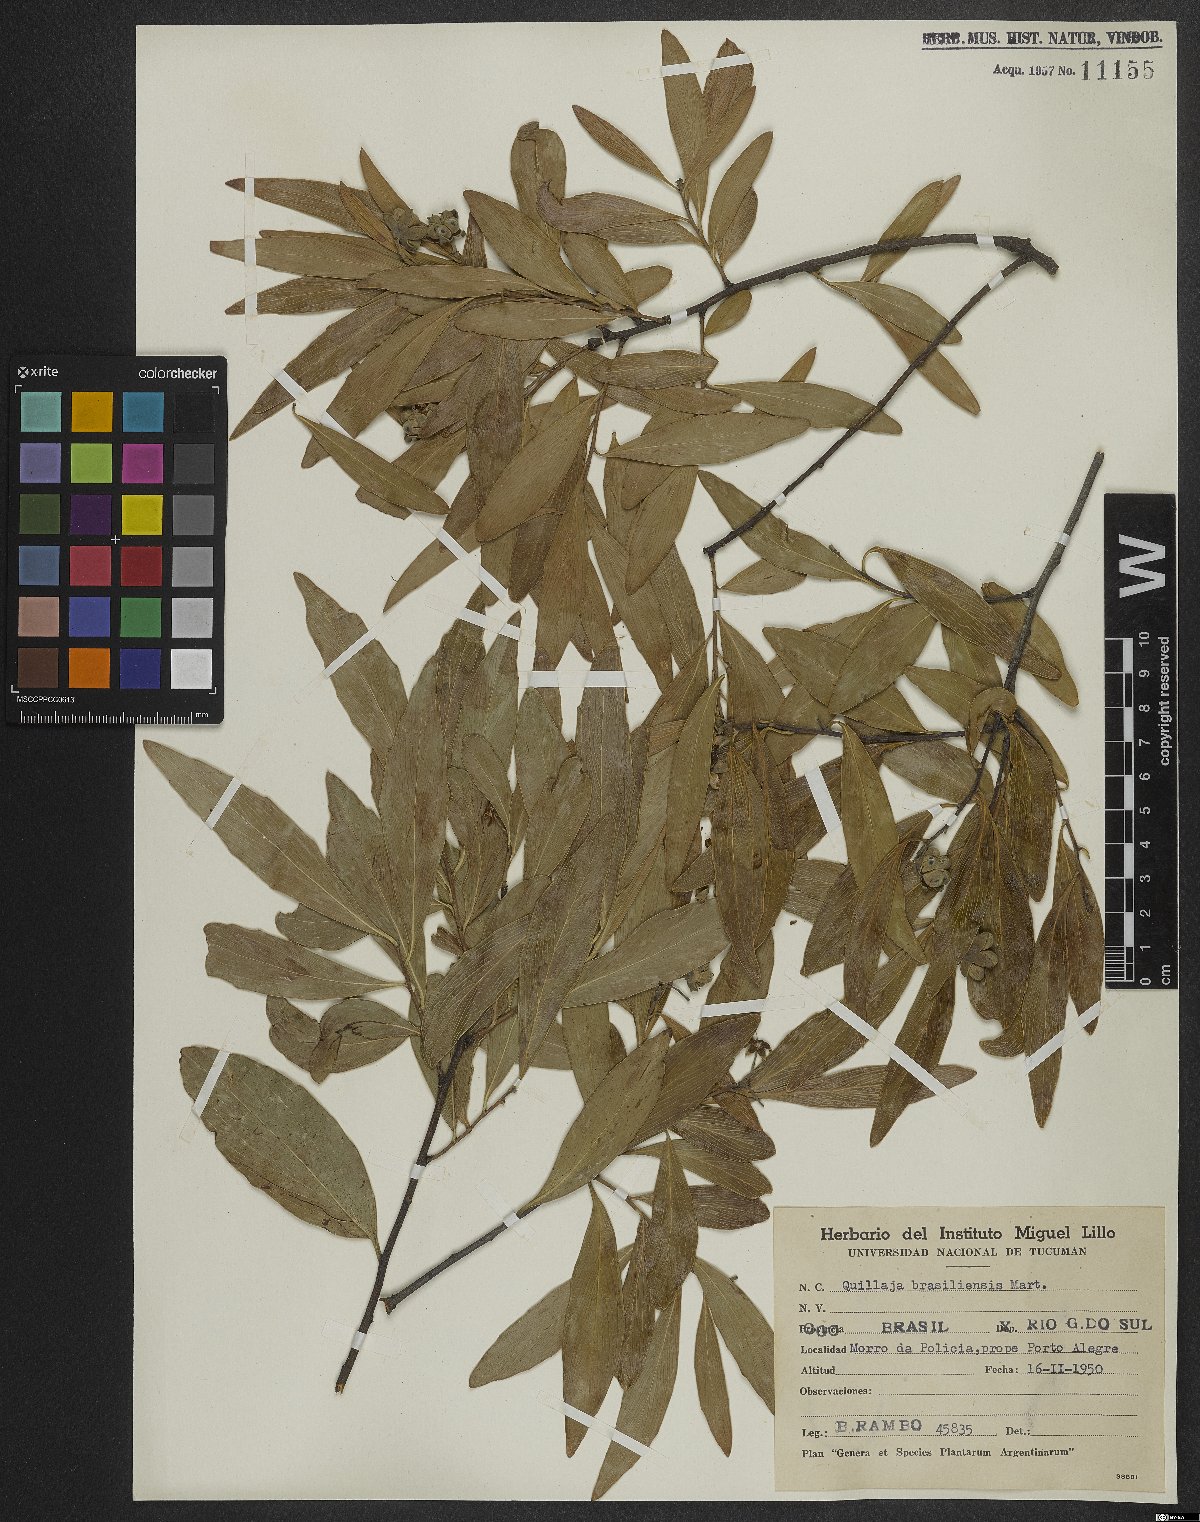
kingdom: Plantae
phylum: Tracheophyta
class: Magnoliopsida
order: Fabales
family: Quillajaceae
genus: Quillaja
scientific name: Quillaja brasiliensis
